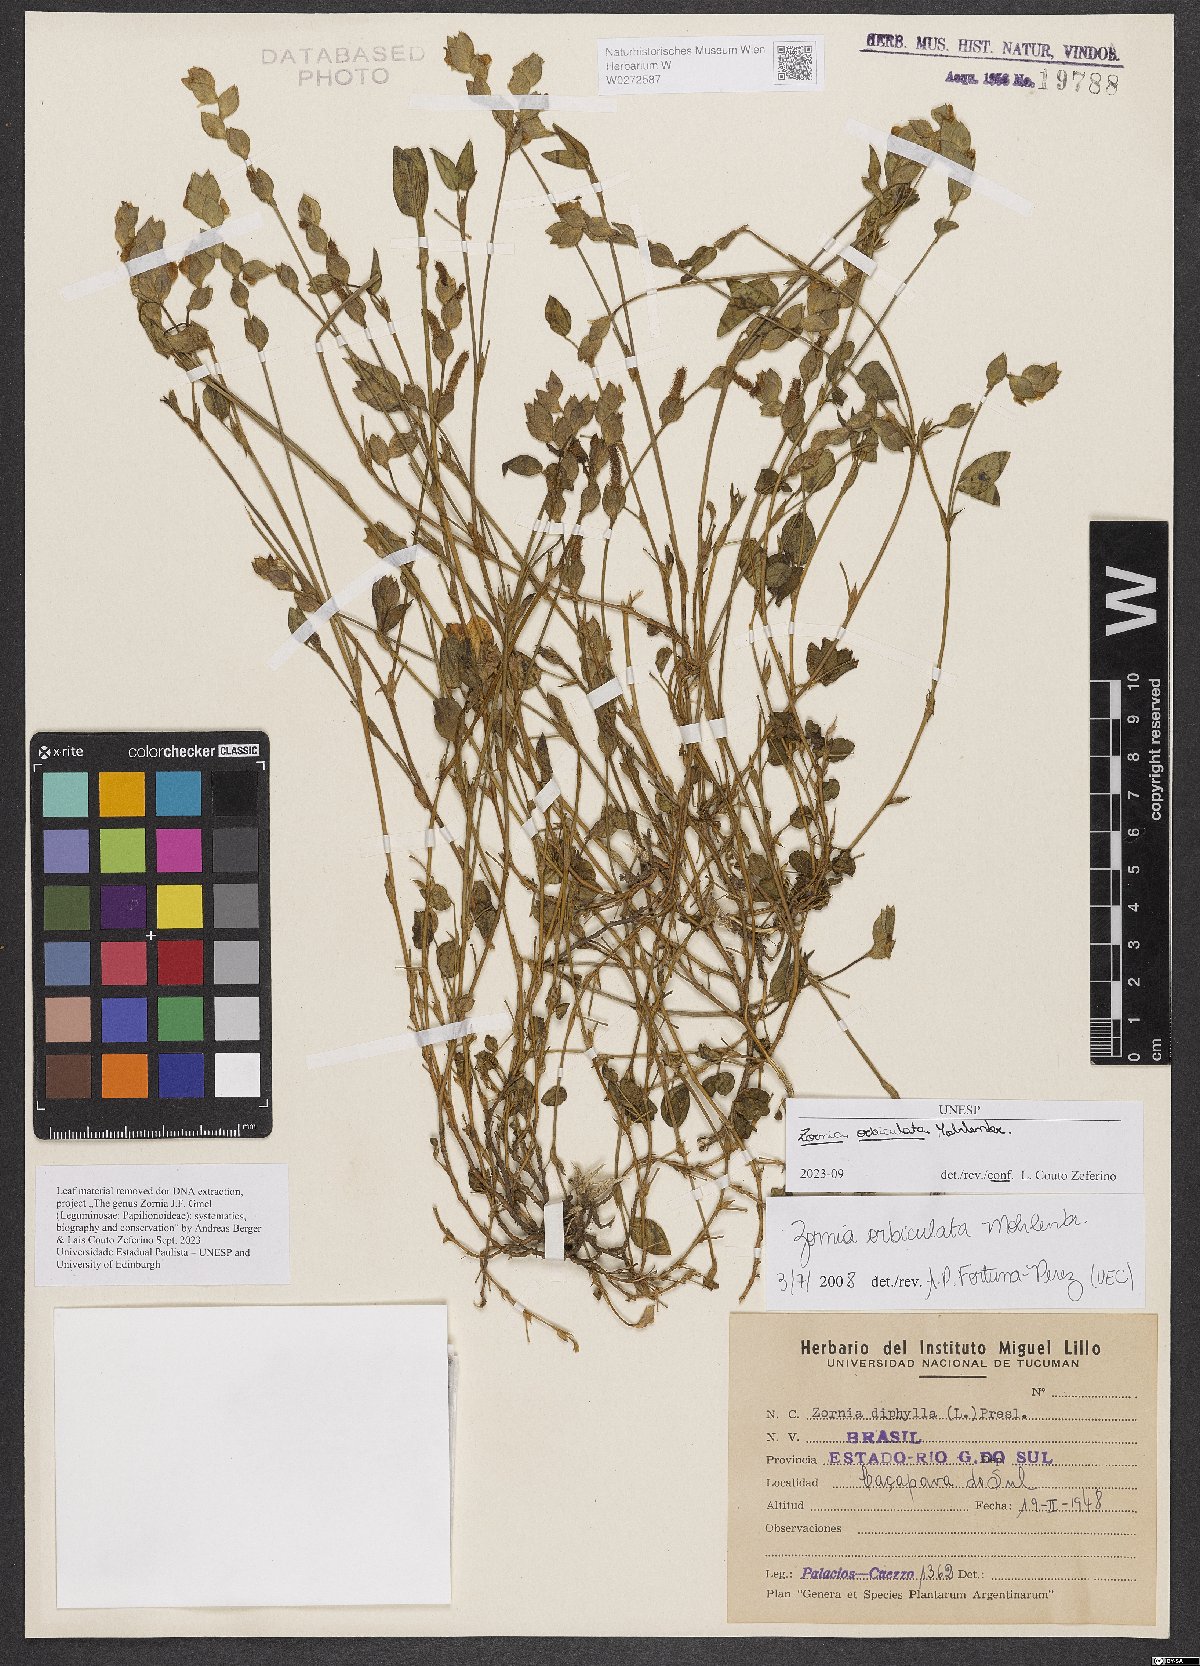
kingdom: Plantae
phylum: Tracheophyta
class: Magnoliopsida
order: Fabales
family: Fabaceae
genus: Zornia
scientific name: Zornia orbiculata
